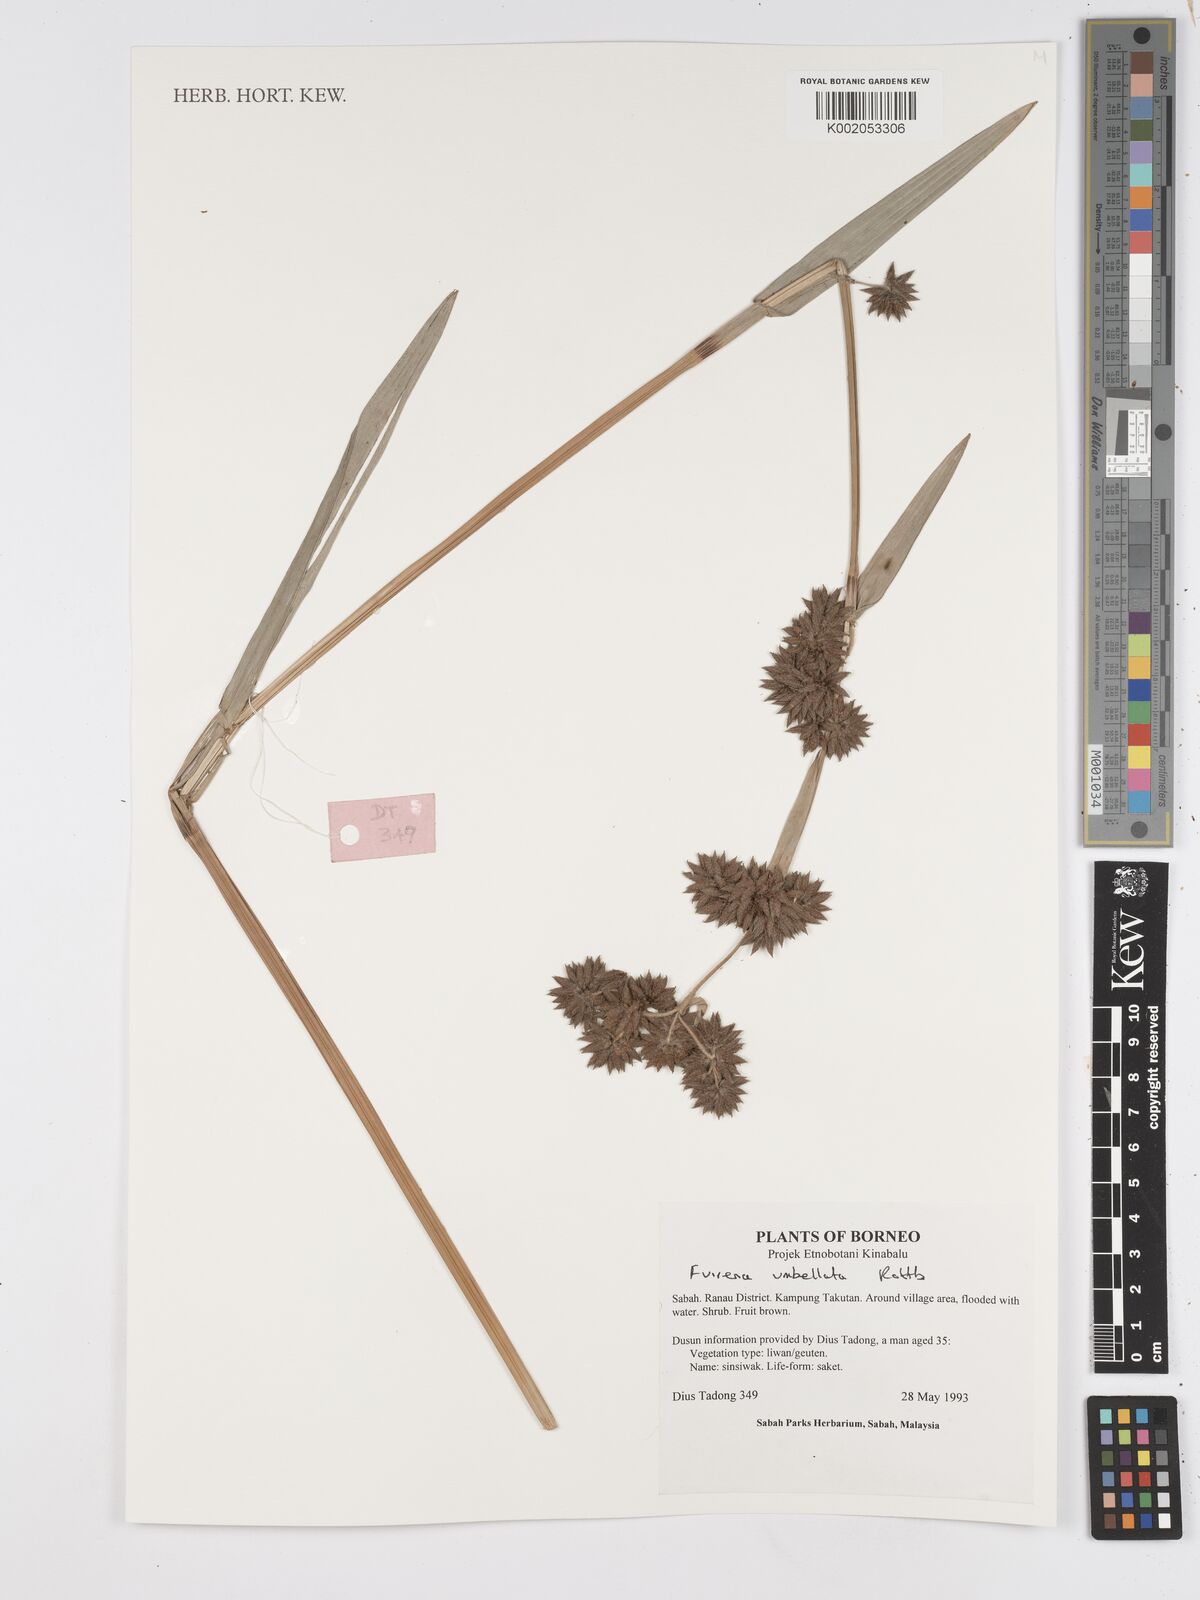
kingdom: Plantae
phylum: Tracheophyta
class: Liliopsida
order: Poales
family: Cyperaceae
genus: Fuirena
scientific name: Fuirena umbellata
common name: Yefen
